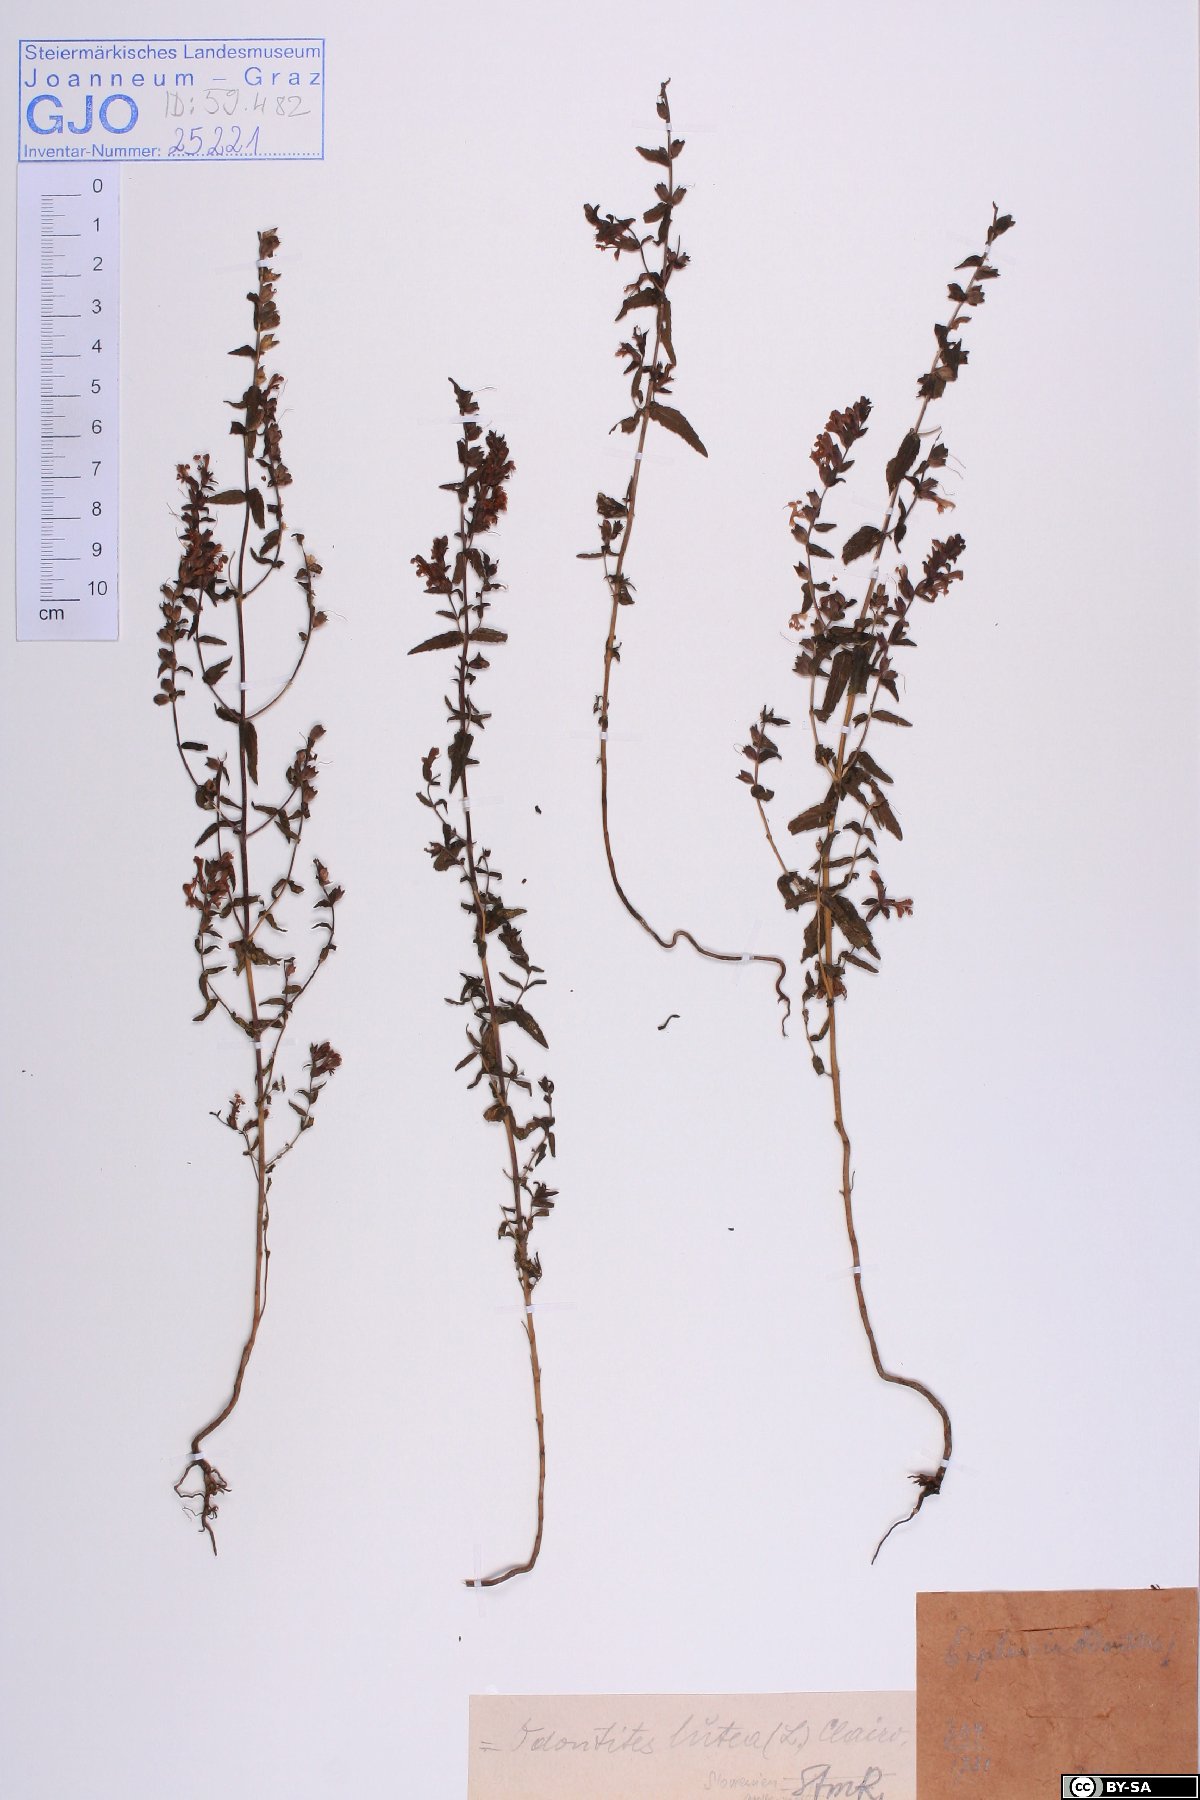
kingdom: Plantae
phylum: Tracheophyta
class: Magnoliopsida
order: Lamiales
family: Orobanchaceae
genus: Odontites
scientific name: Odontites luteus
